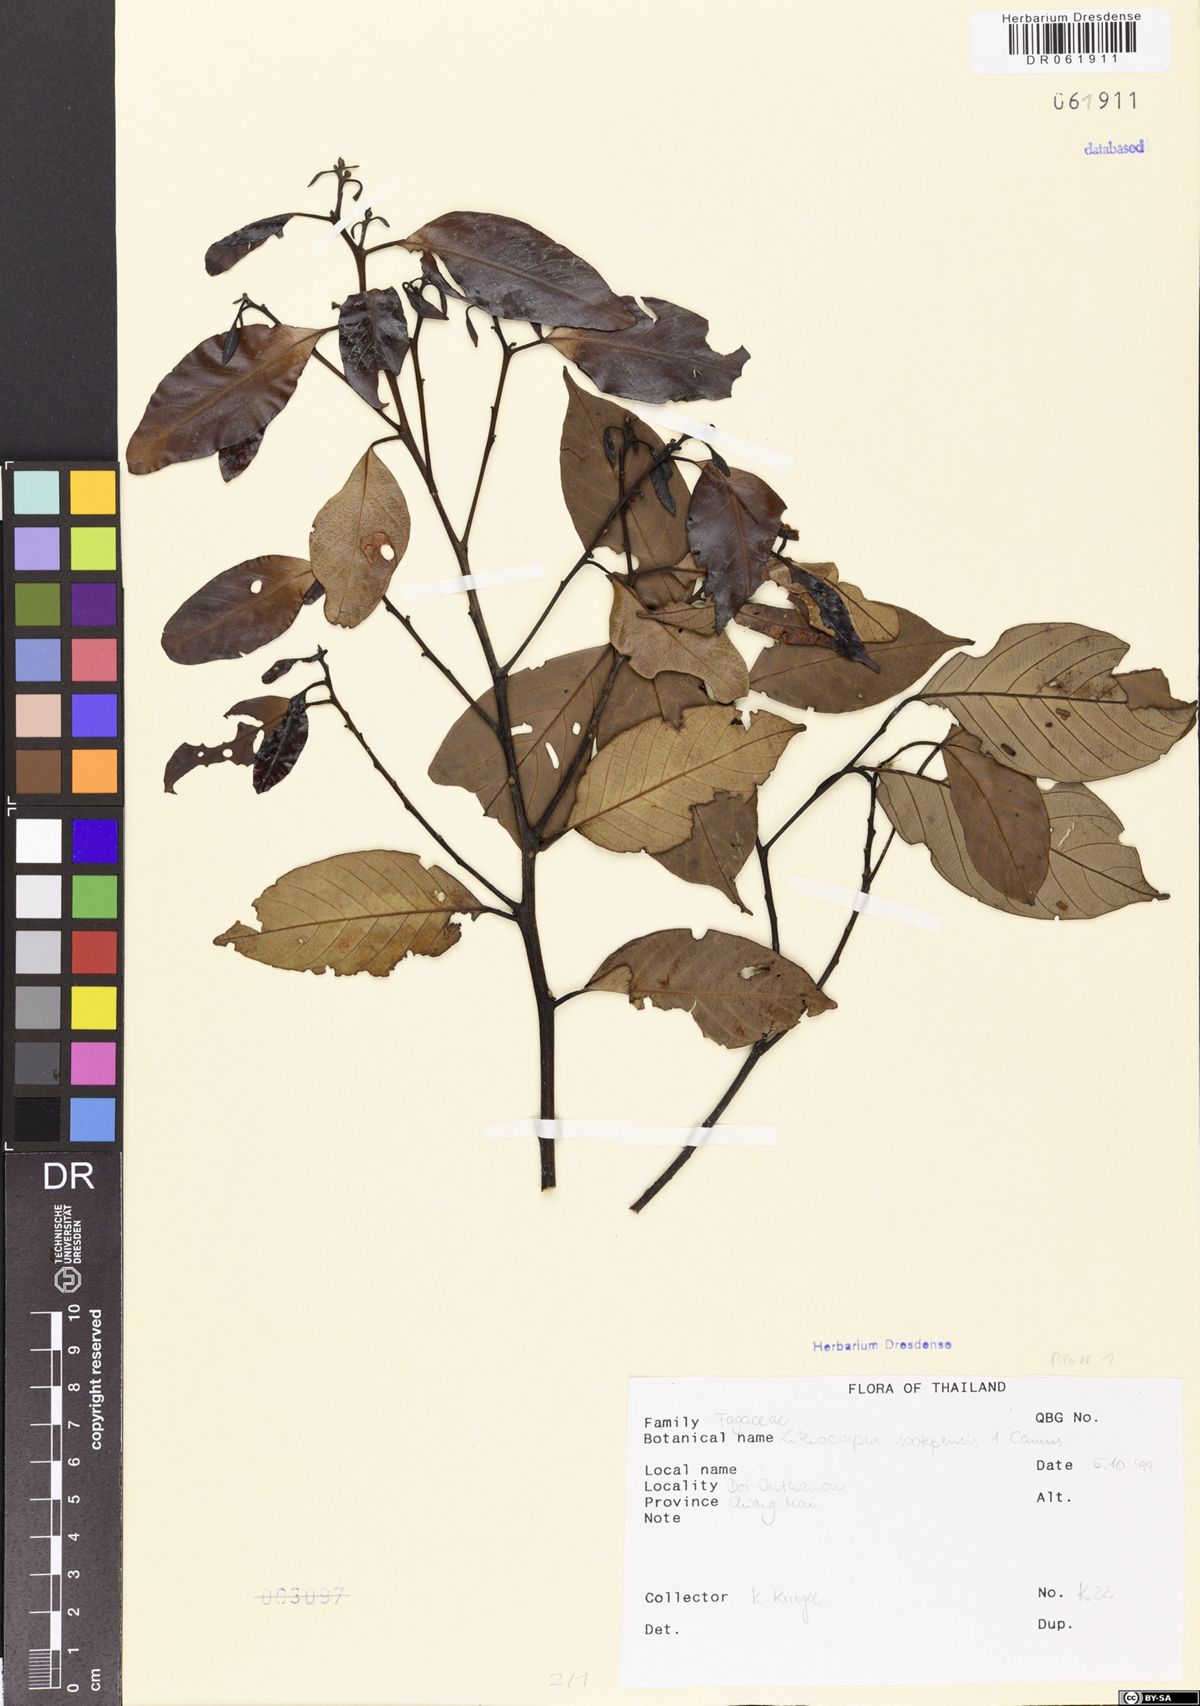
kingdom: Plantae
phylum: Tracheophyta
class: Magnoliopsida
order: Fagales
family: Fagaceae
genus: Lithocarpus
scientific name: Lithocarpus sootepensis
